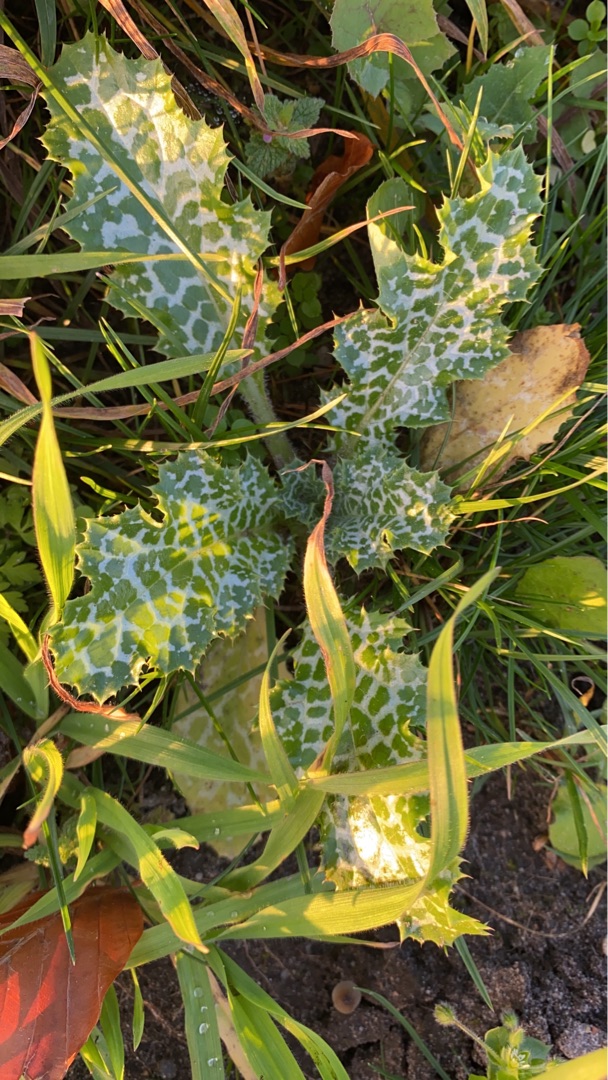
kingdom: Plantae
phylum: Tracheophyta
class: Magnoliopsida
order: Asterales
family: Asteraceae
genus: Silybum
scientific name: Silybum marianum
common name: Marietidsel
